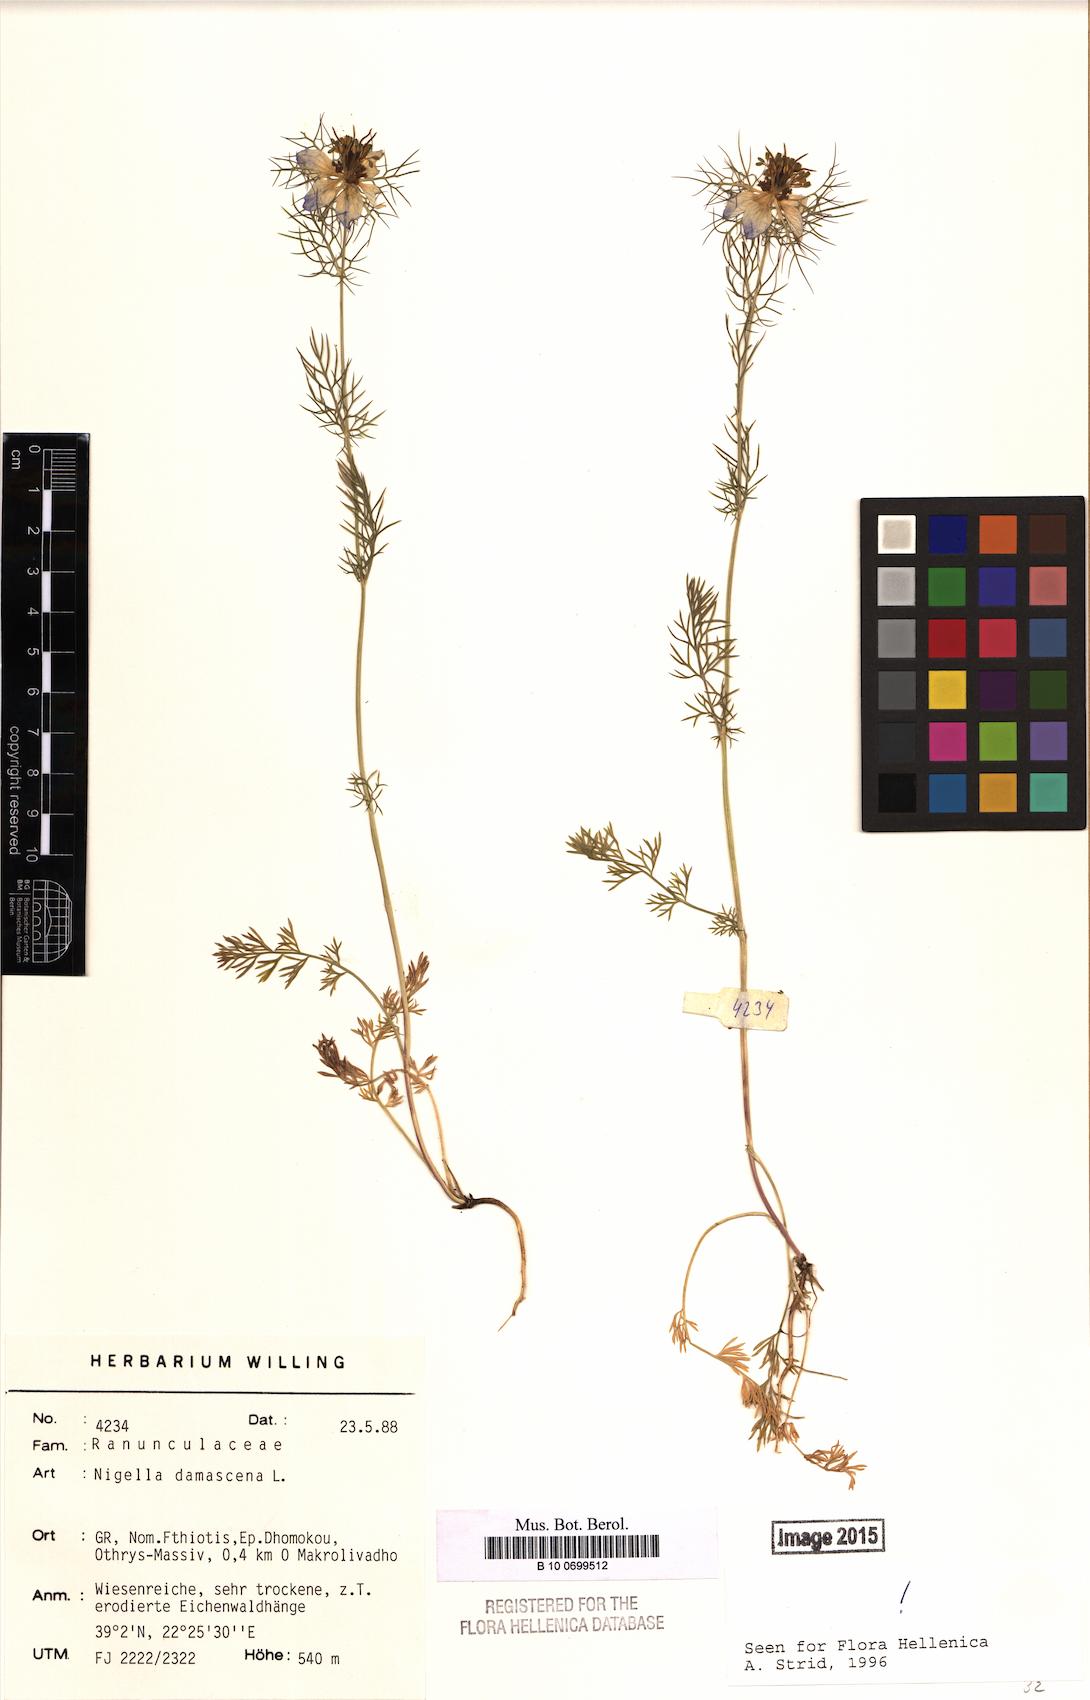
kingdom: Plantae
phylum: Tracheophyta
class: Magnoliopsida
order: Ranunculales
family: Ranunculaceae
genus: Nigella
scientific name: Nigella damascena
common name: Love-in-a-mist
